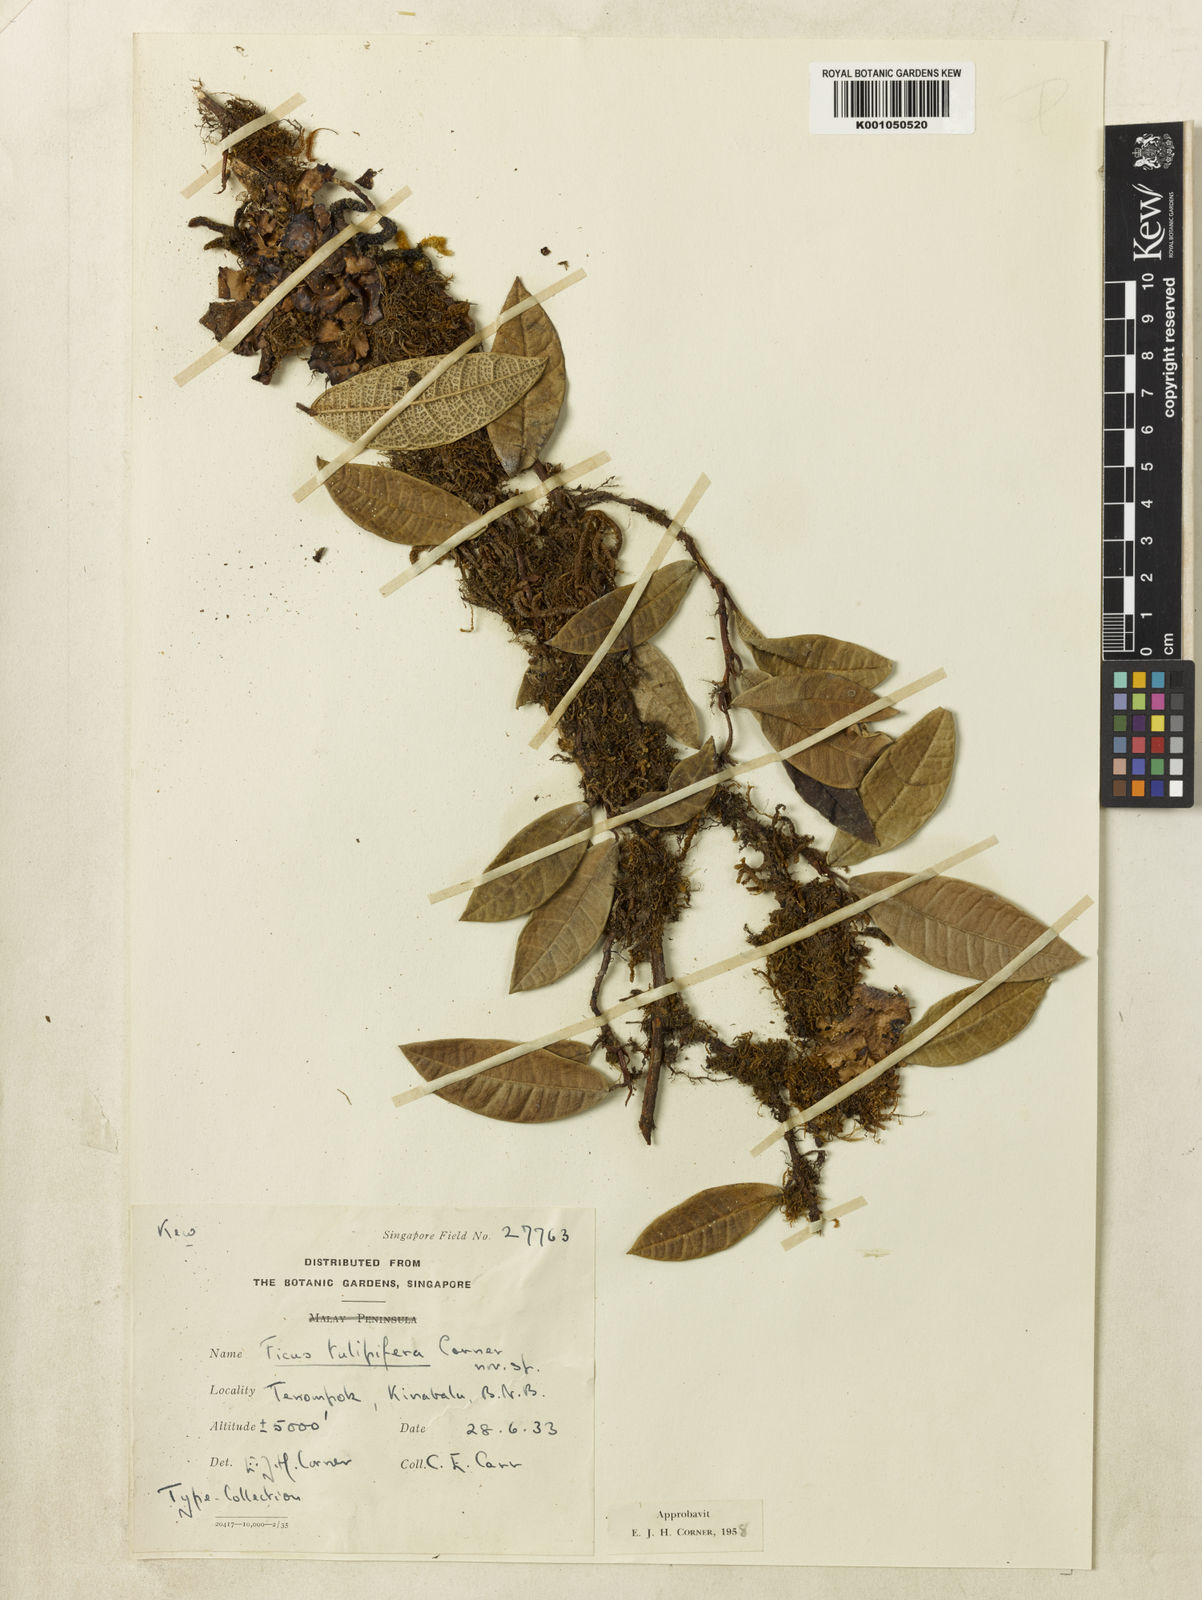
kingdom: Plantae
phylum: Tracheophyta
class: Magnoliopsida
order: Rosales
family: Moraceae
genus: Ficus
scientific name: Ficus tulipifera
